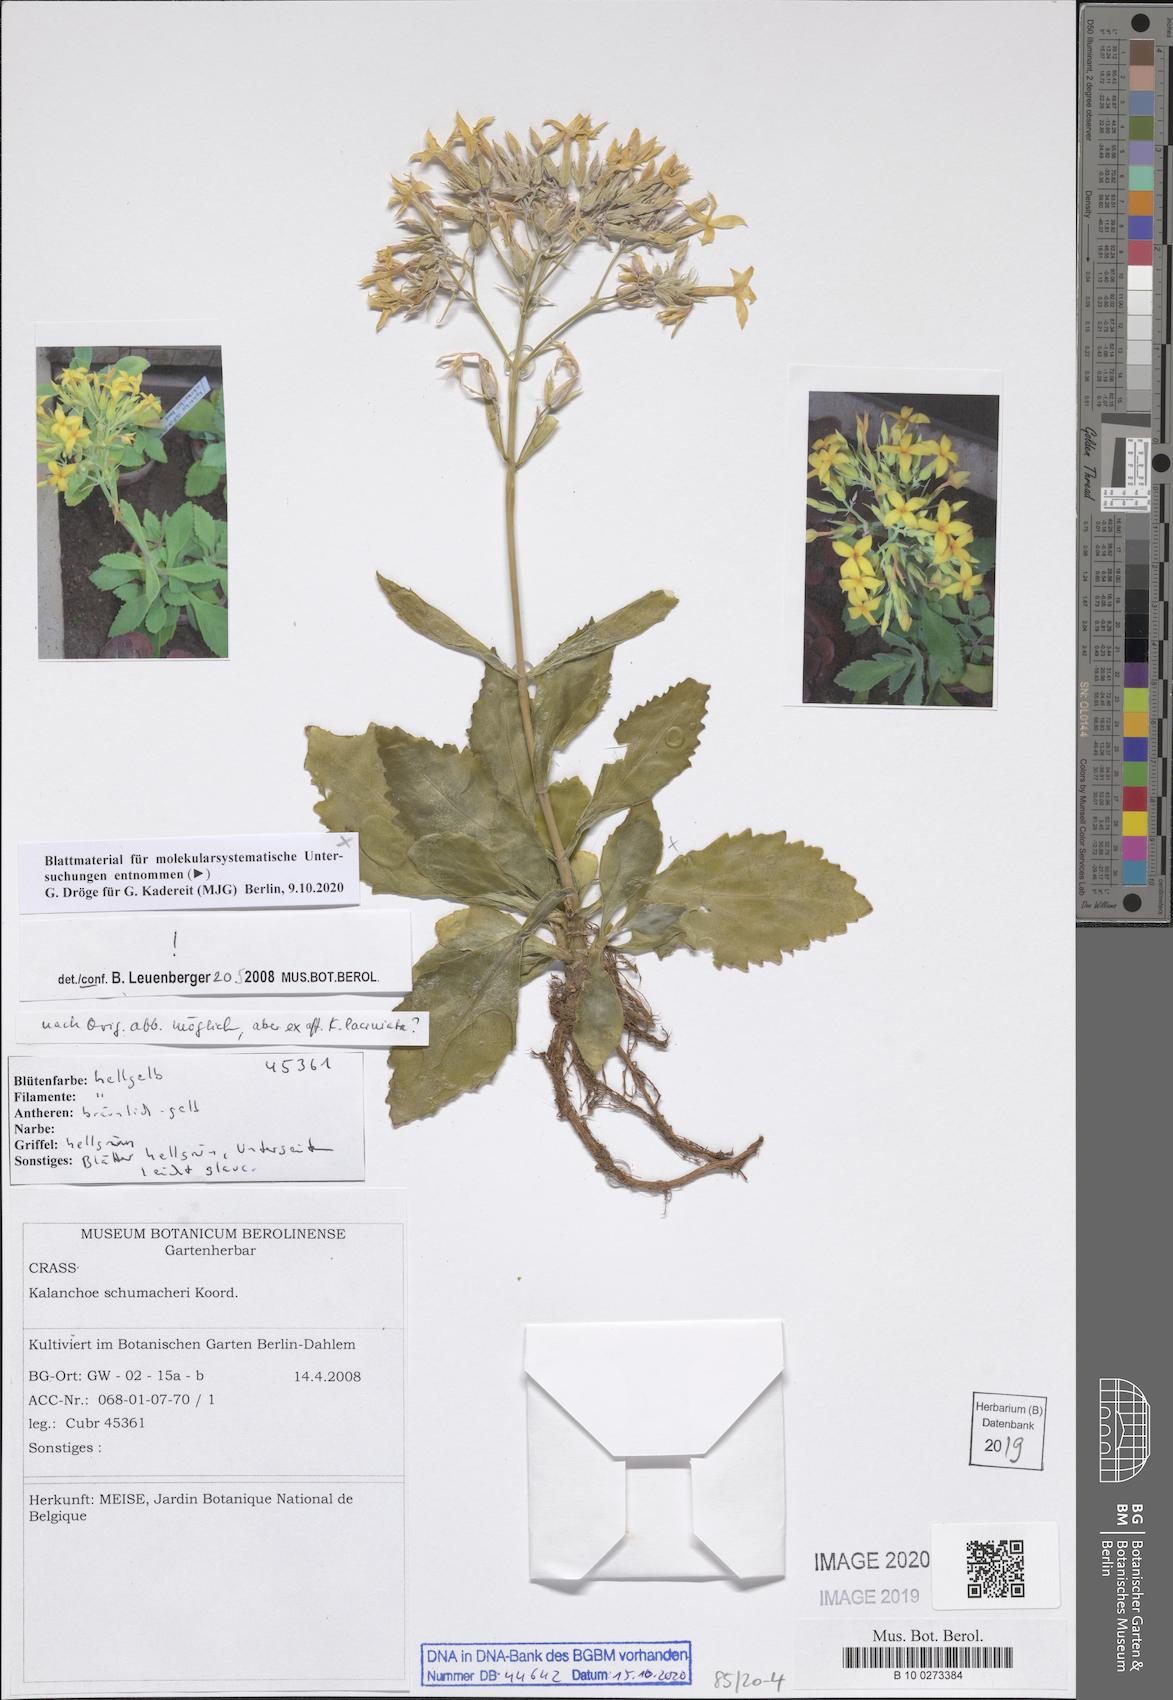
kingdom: Plantae
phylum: Tracheophyta
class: Magnoliopsida
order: Saxifragales
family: Crassulaceae
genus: Kalanchoe
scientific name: Kalanchoe integra
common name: Neverdie
